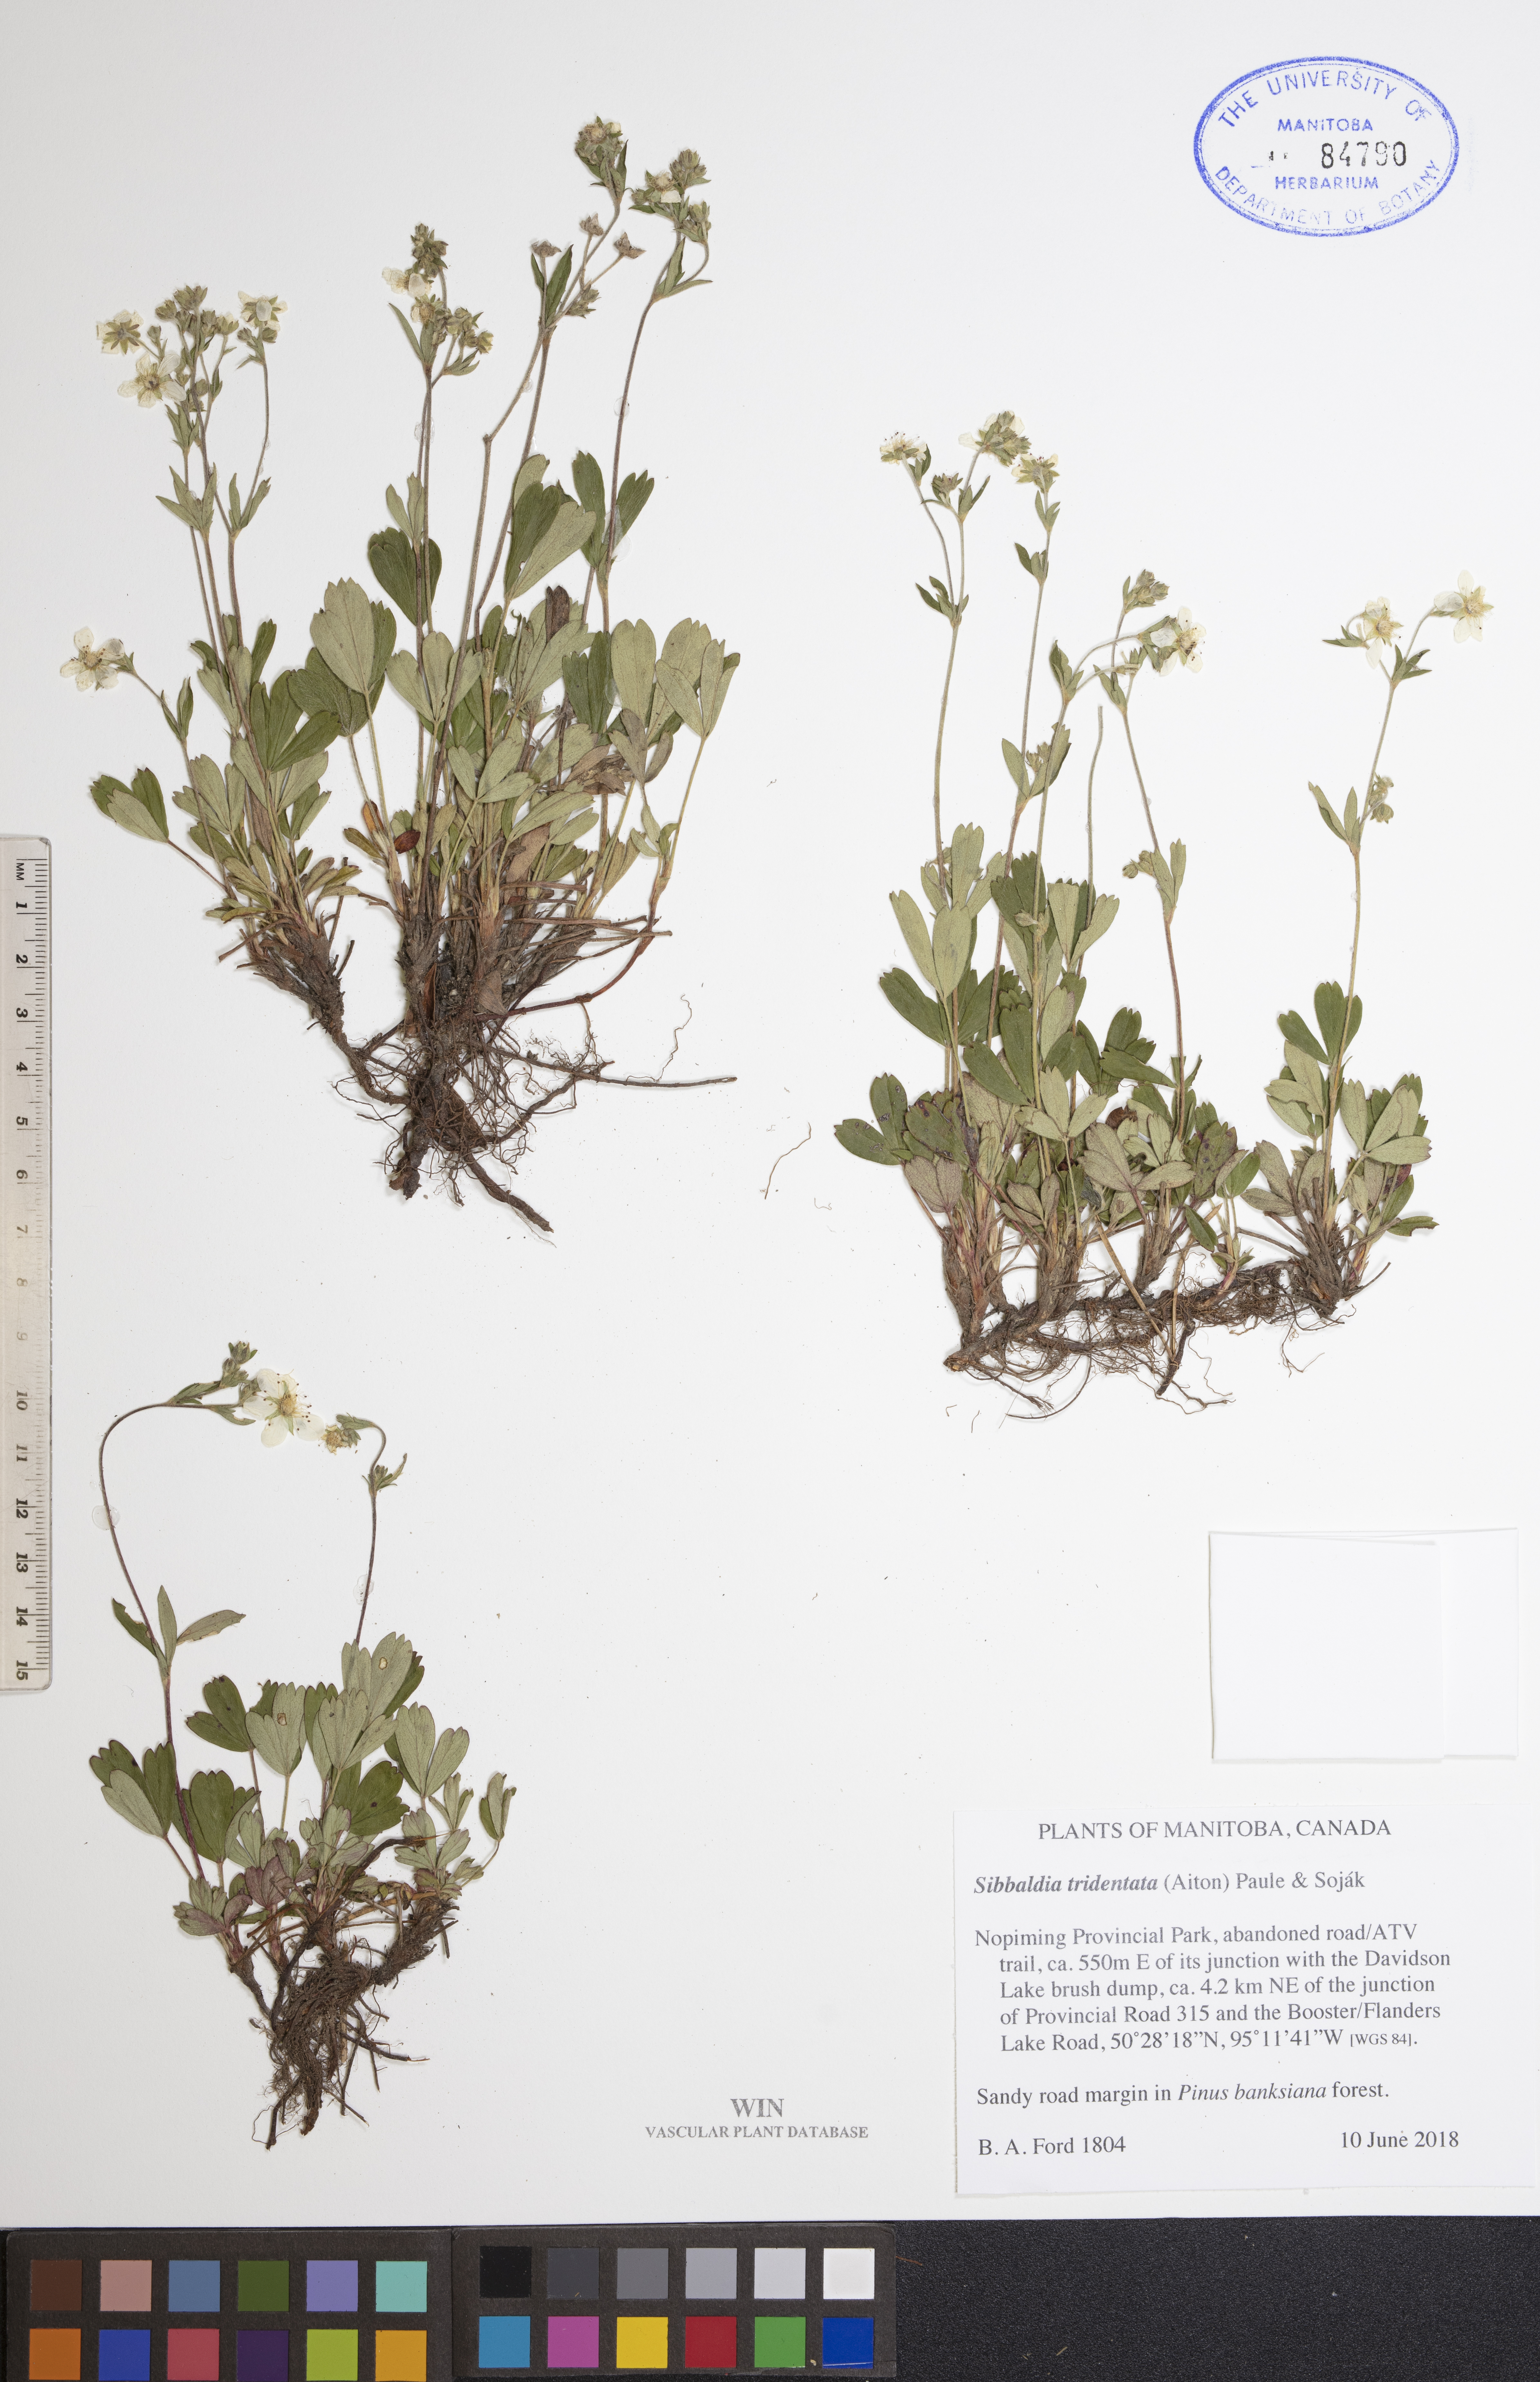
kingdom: Plantae
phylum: Tracheophyta
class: Magnoliopsida
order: Rosales
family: Rosaceae
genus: Sibbaldia
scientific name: Sibbaldia tridentata
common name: Three-toothed cinquefoil
